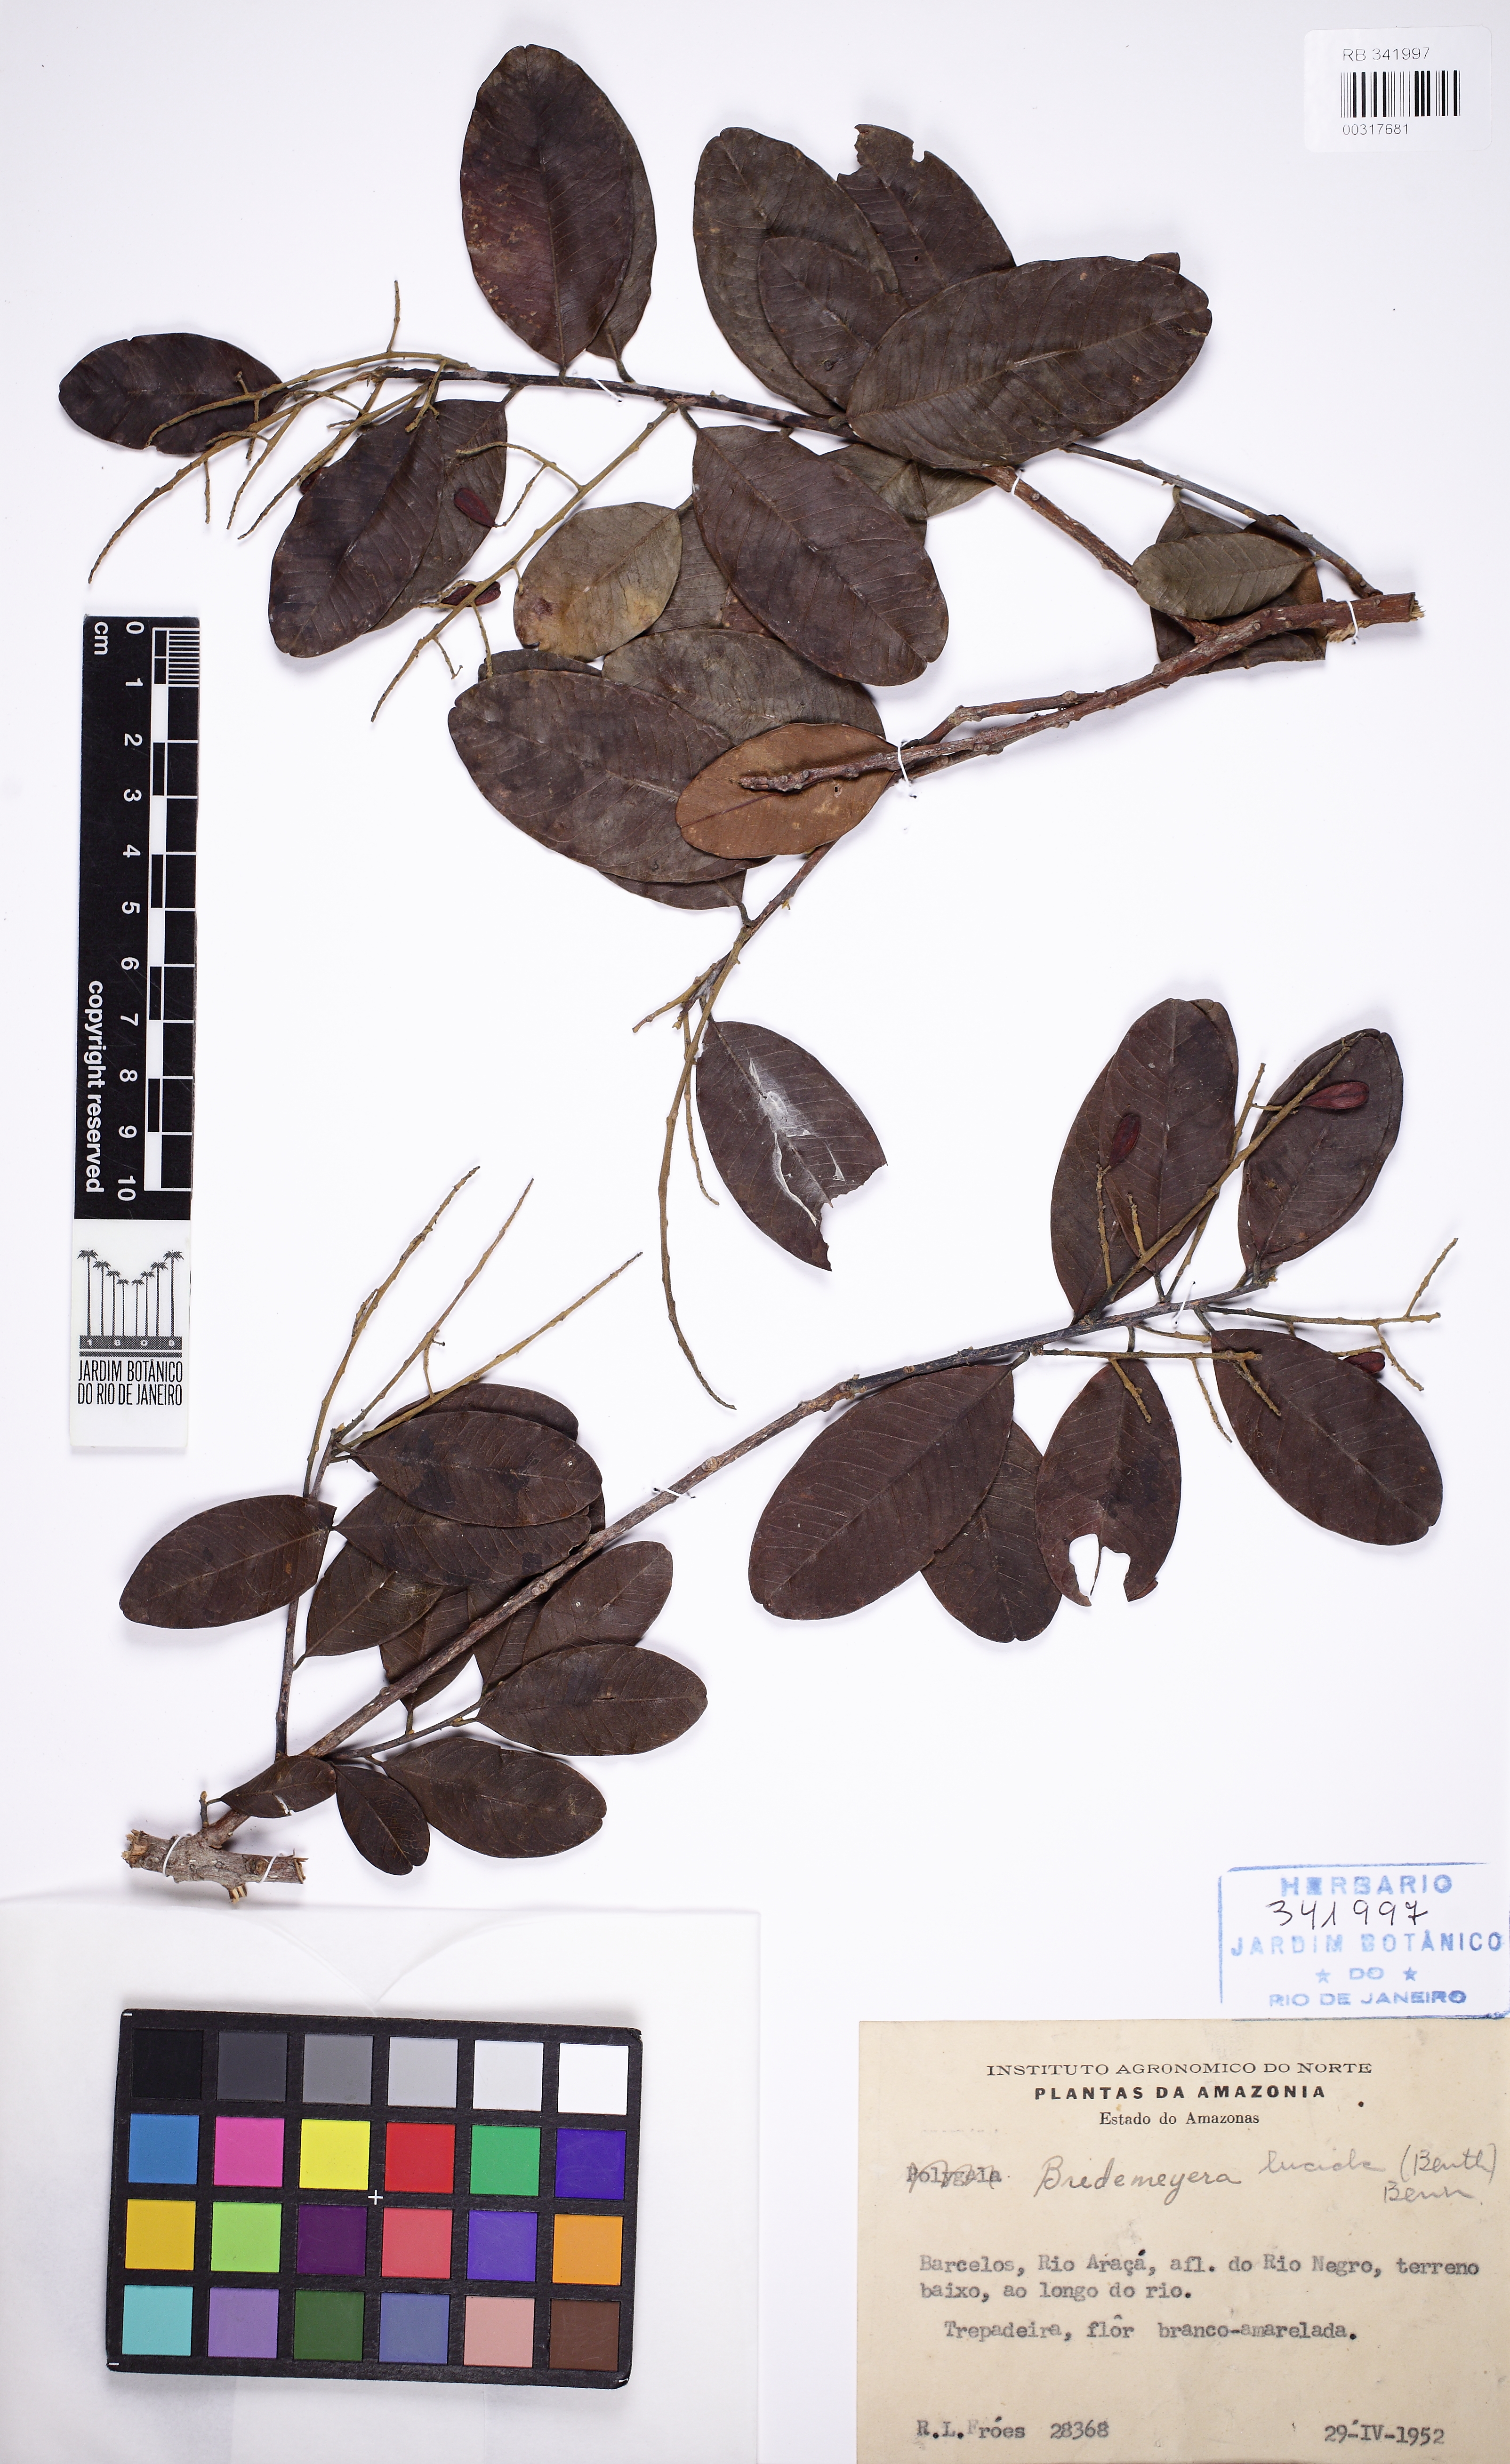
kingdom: Plantae
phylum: Tracheophyta
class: Magnoliopsida
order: Fabales
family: Polygalaceae
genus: Bredemeyera
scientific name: Bredemeyera lucida
